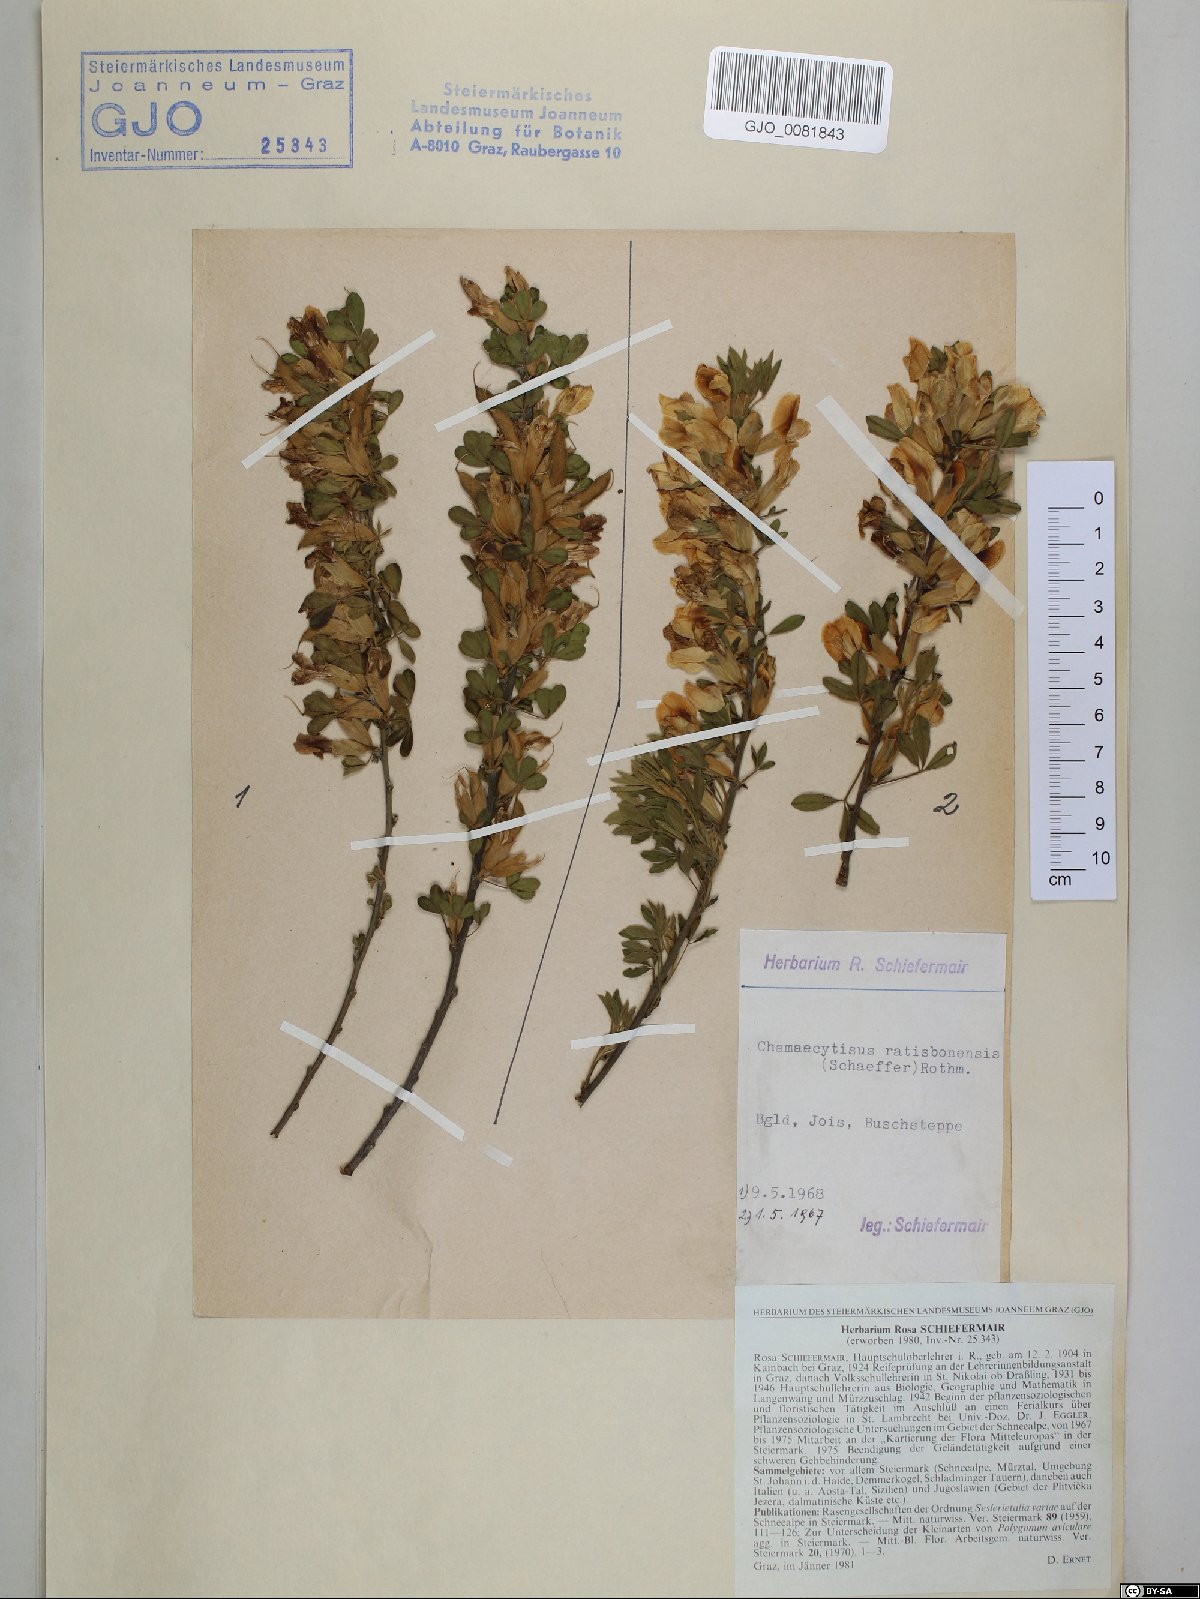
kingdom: Plantae
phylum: Tracheophyta
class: Magnoliopsida
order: Fabales
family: Fabaceae
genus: Chamaecytisus
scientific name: Chamaecytisus ratisbonensis
